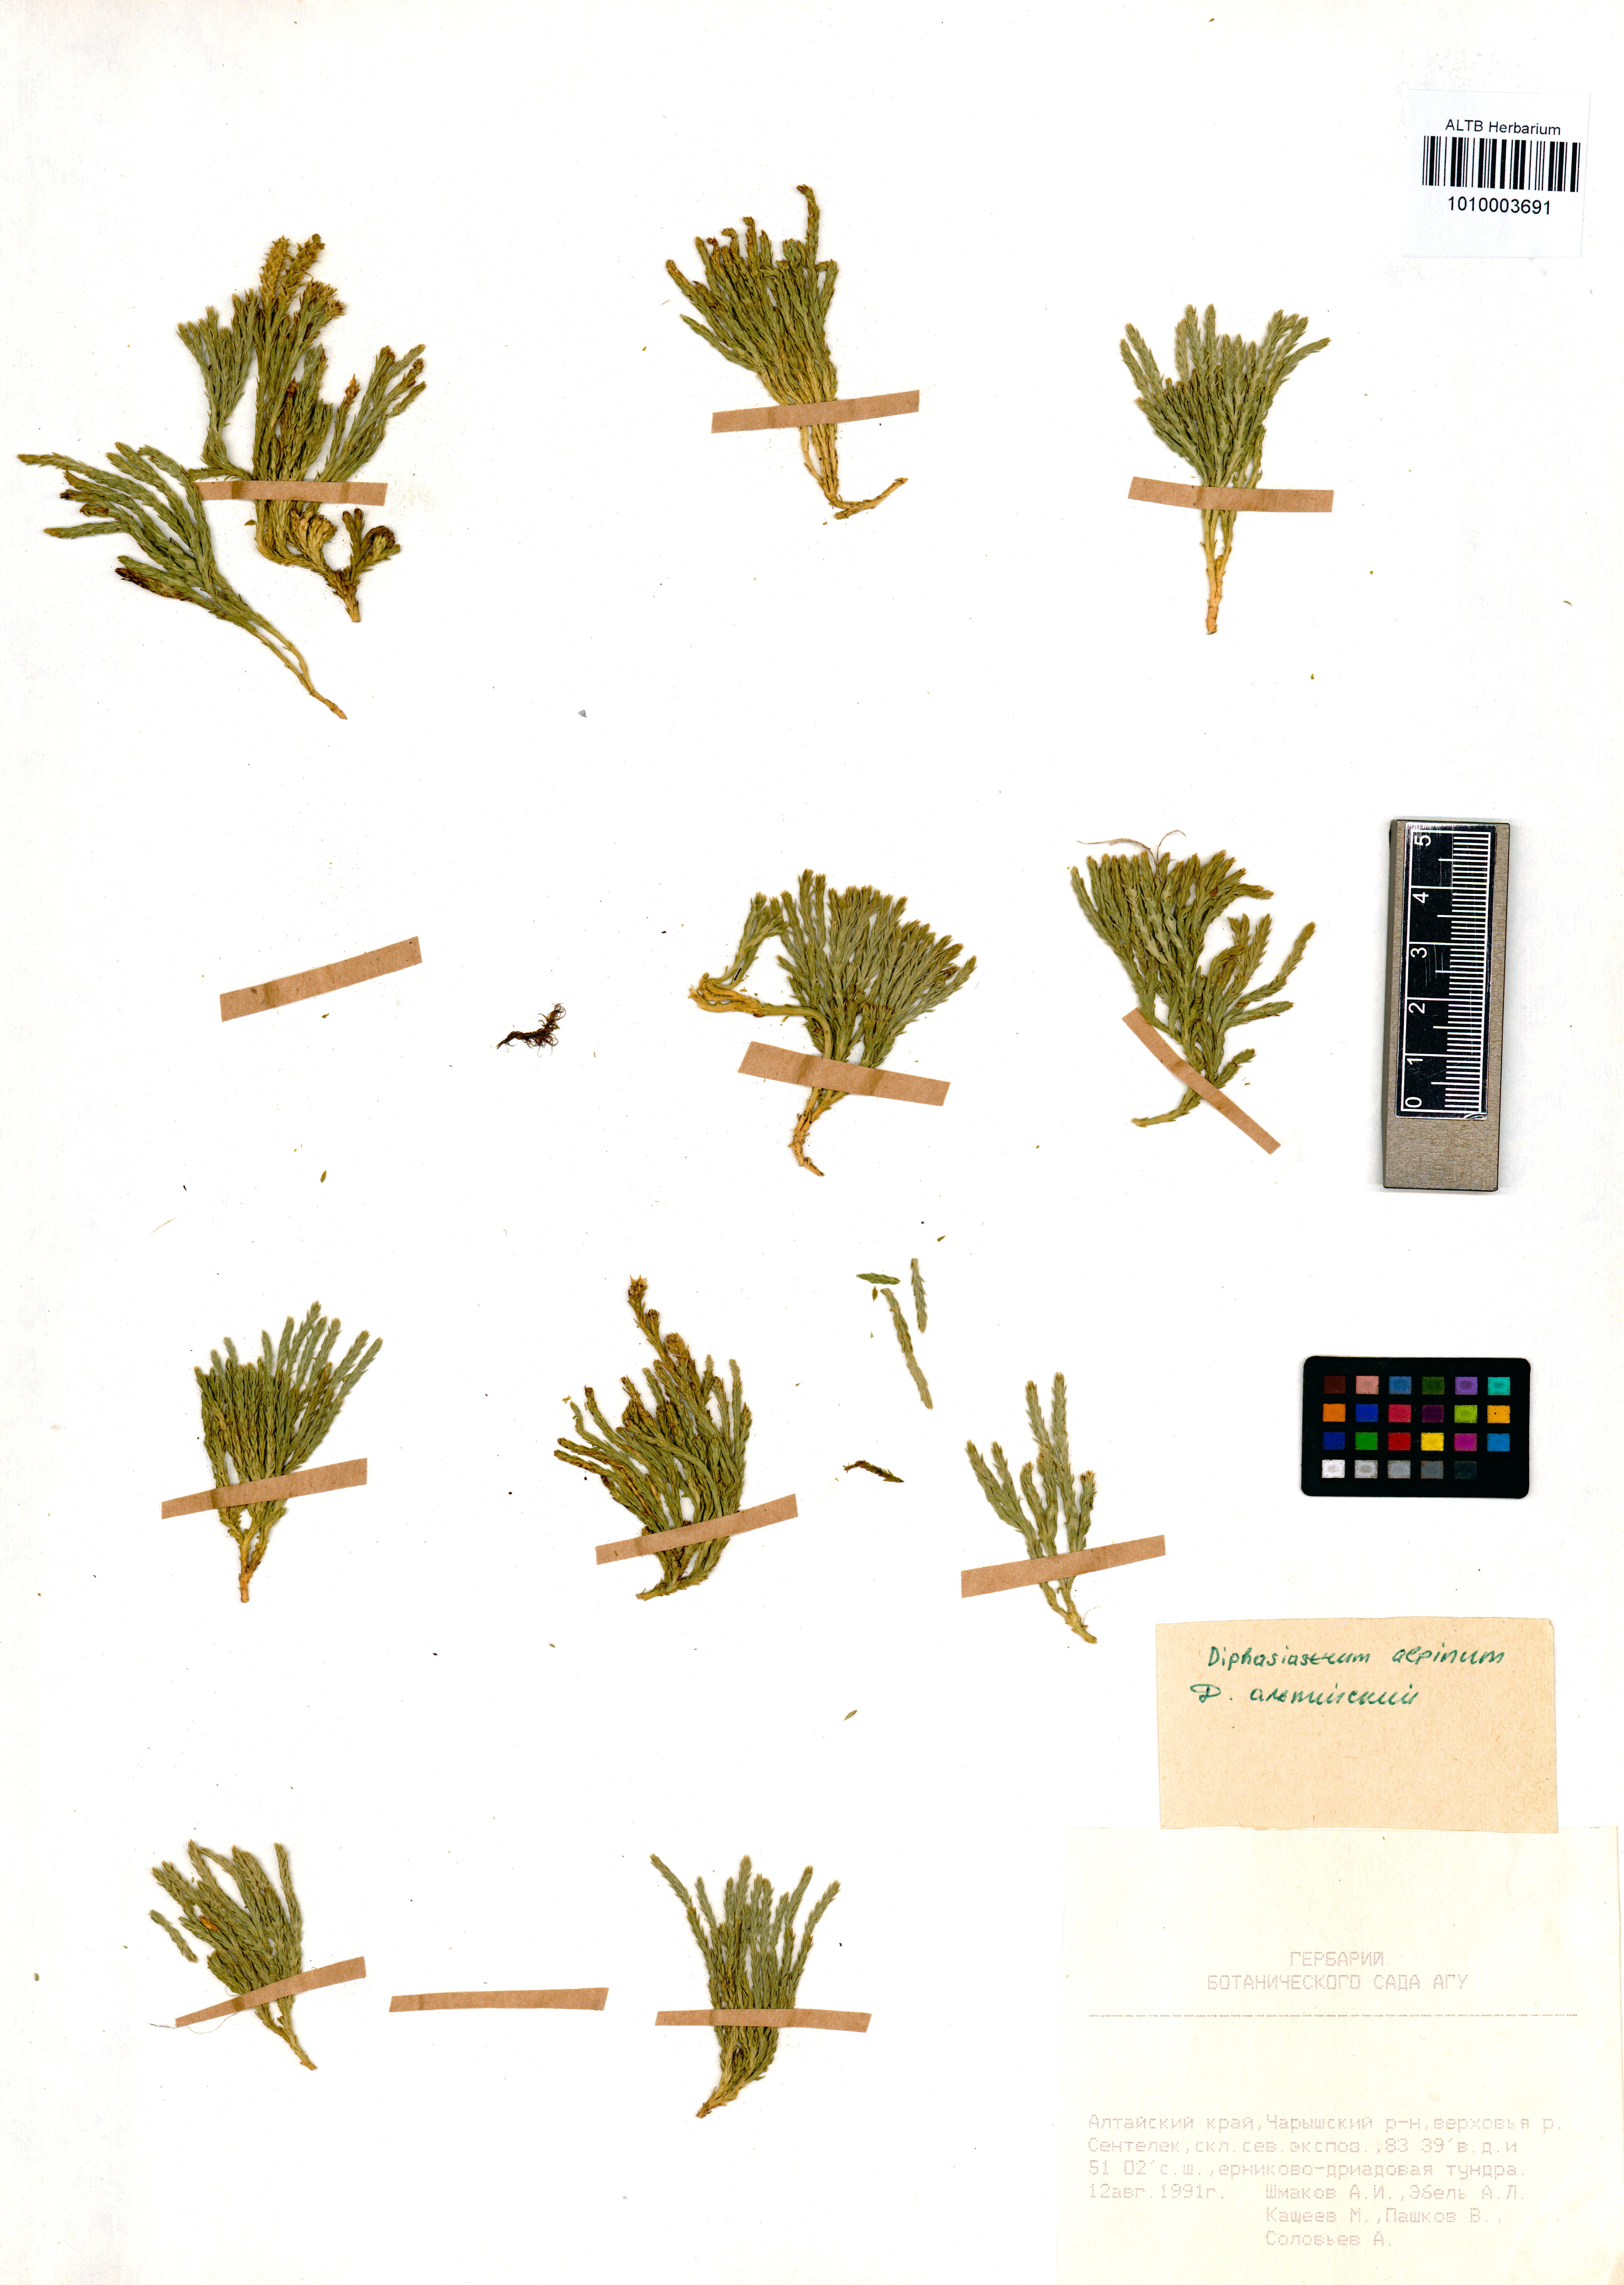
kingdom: Plantae
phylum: Tracheophyta
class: Lycopodiopsida
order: Lycopodiales
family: Lycopodiaceae
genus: Diphasiastrum
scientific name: Diphasiastrum alpinum
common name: Alpine clubmoss
